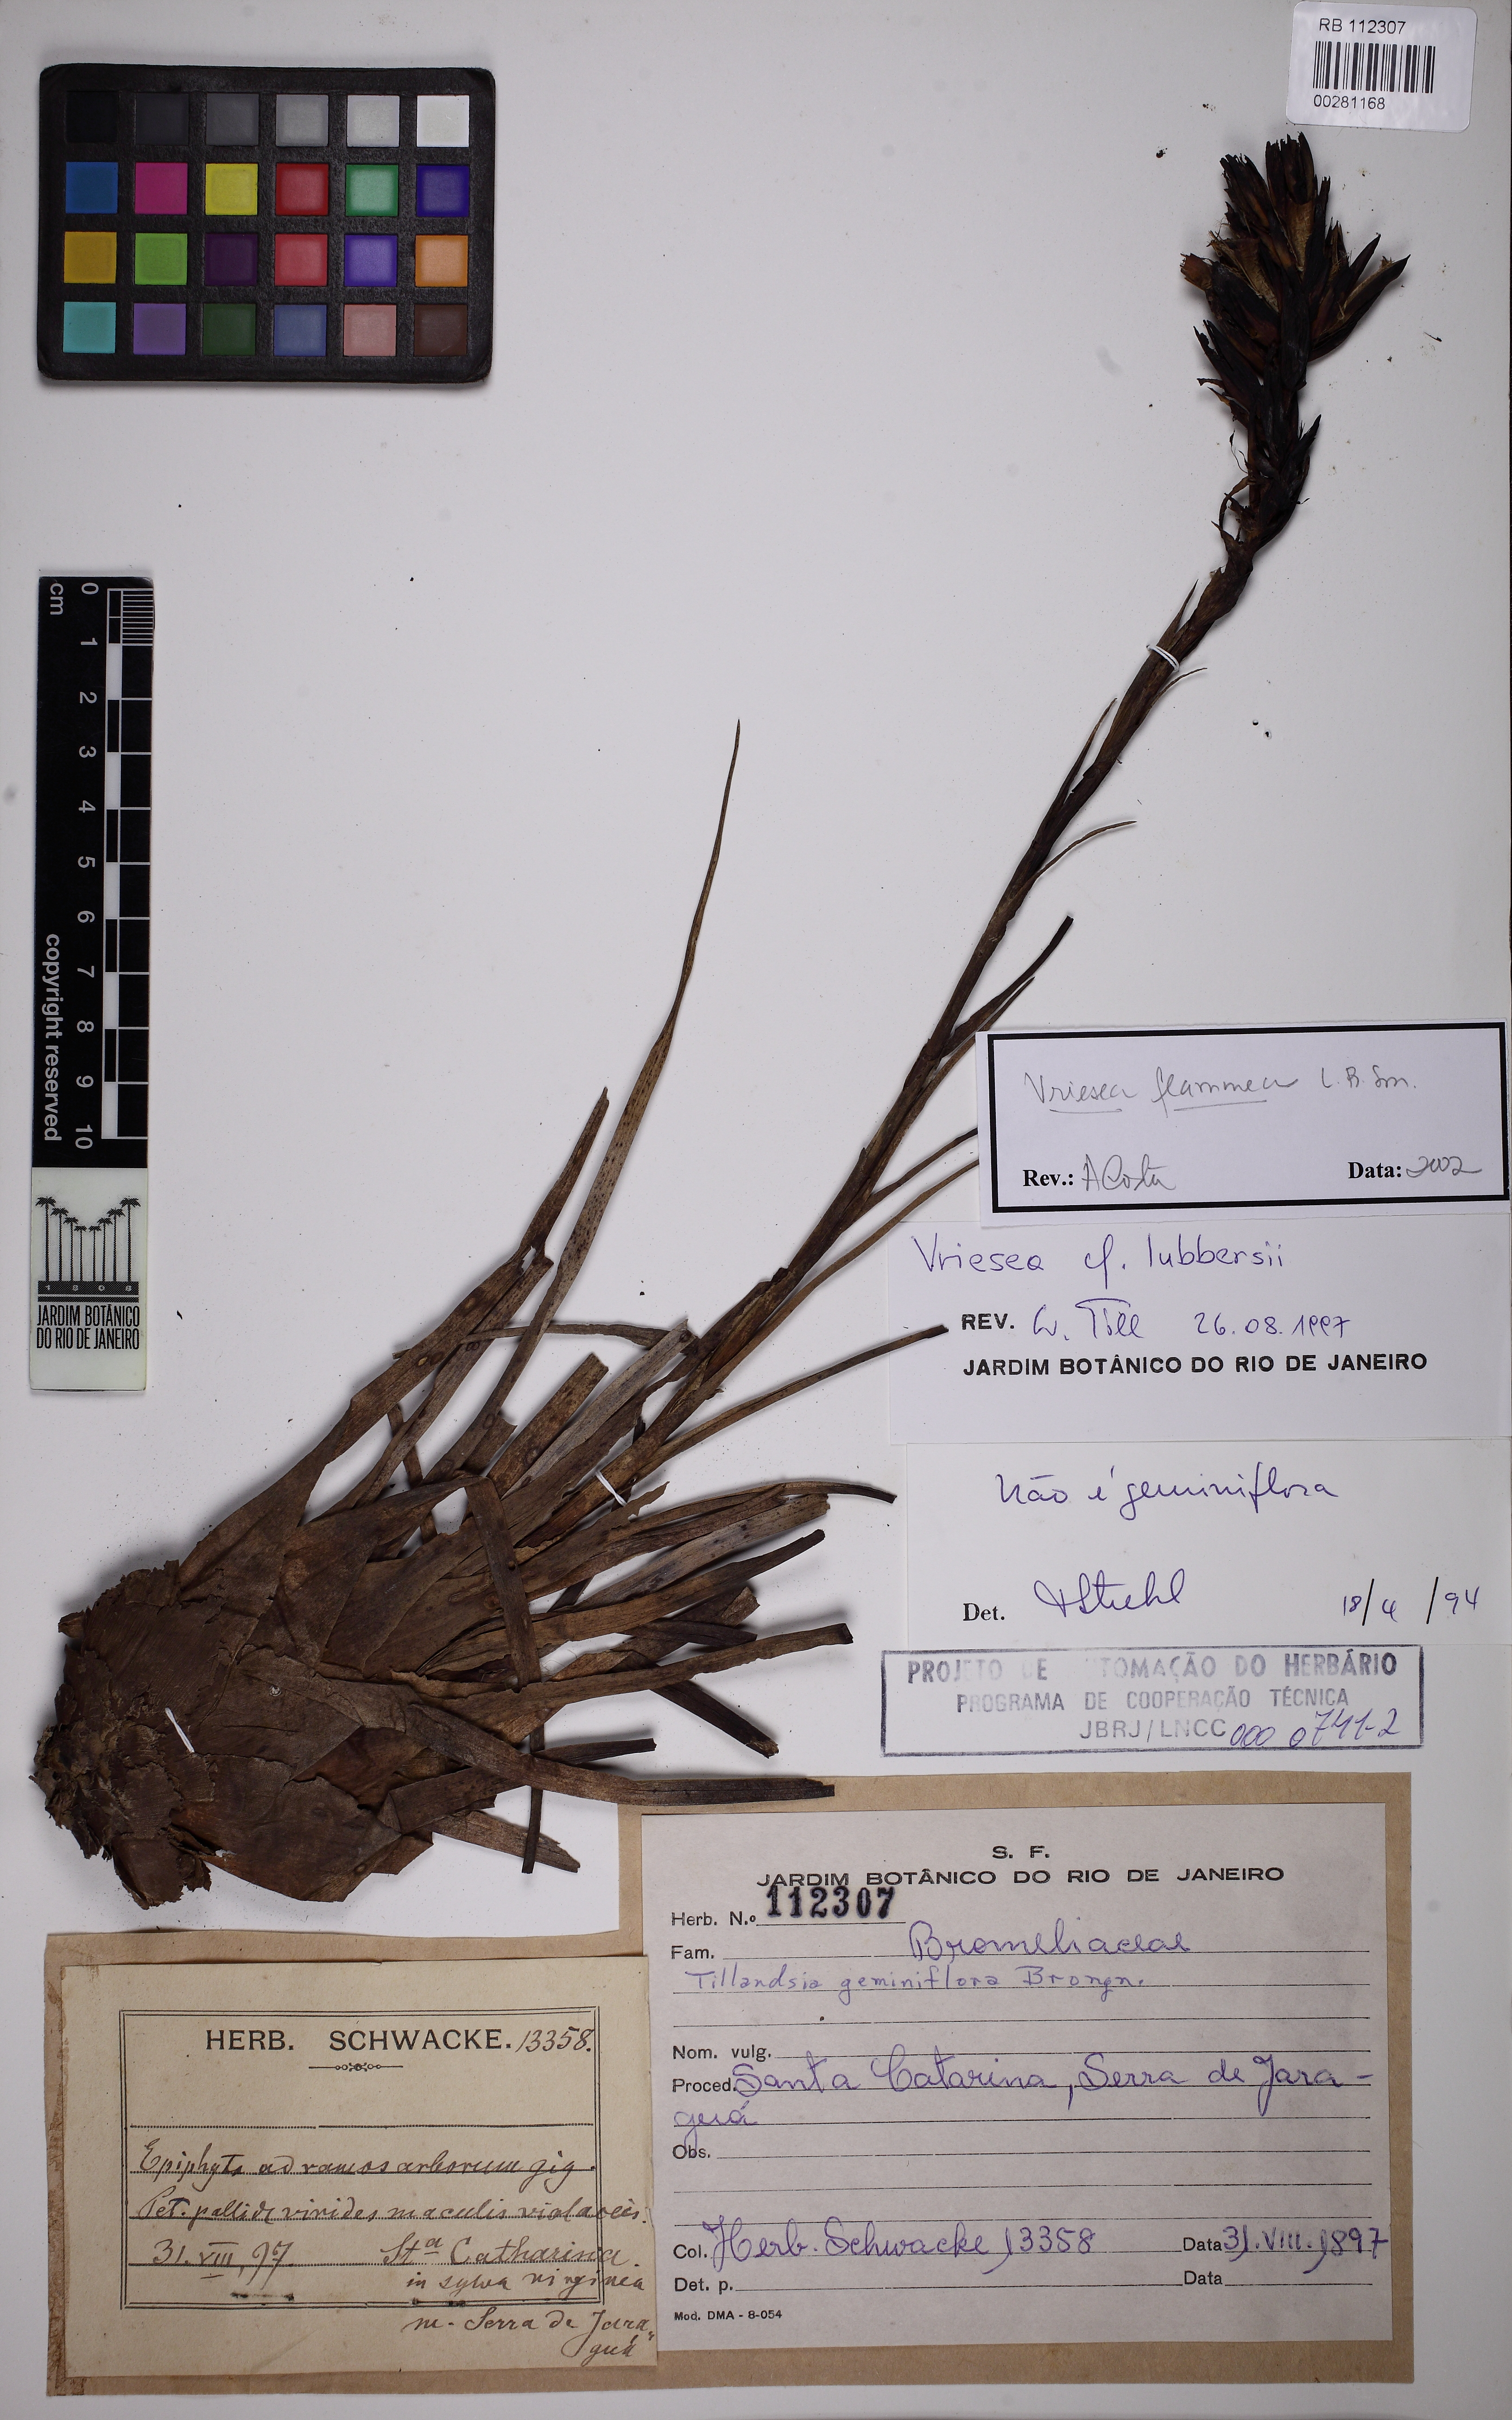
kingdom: Plantae
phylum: Tracheophyta
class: Liliopsida
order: Poales
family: Bromeliaceae
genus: Vriesea
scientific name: Vriesea flammea
